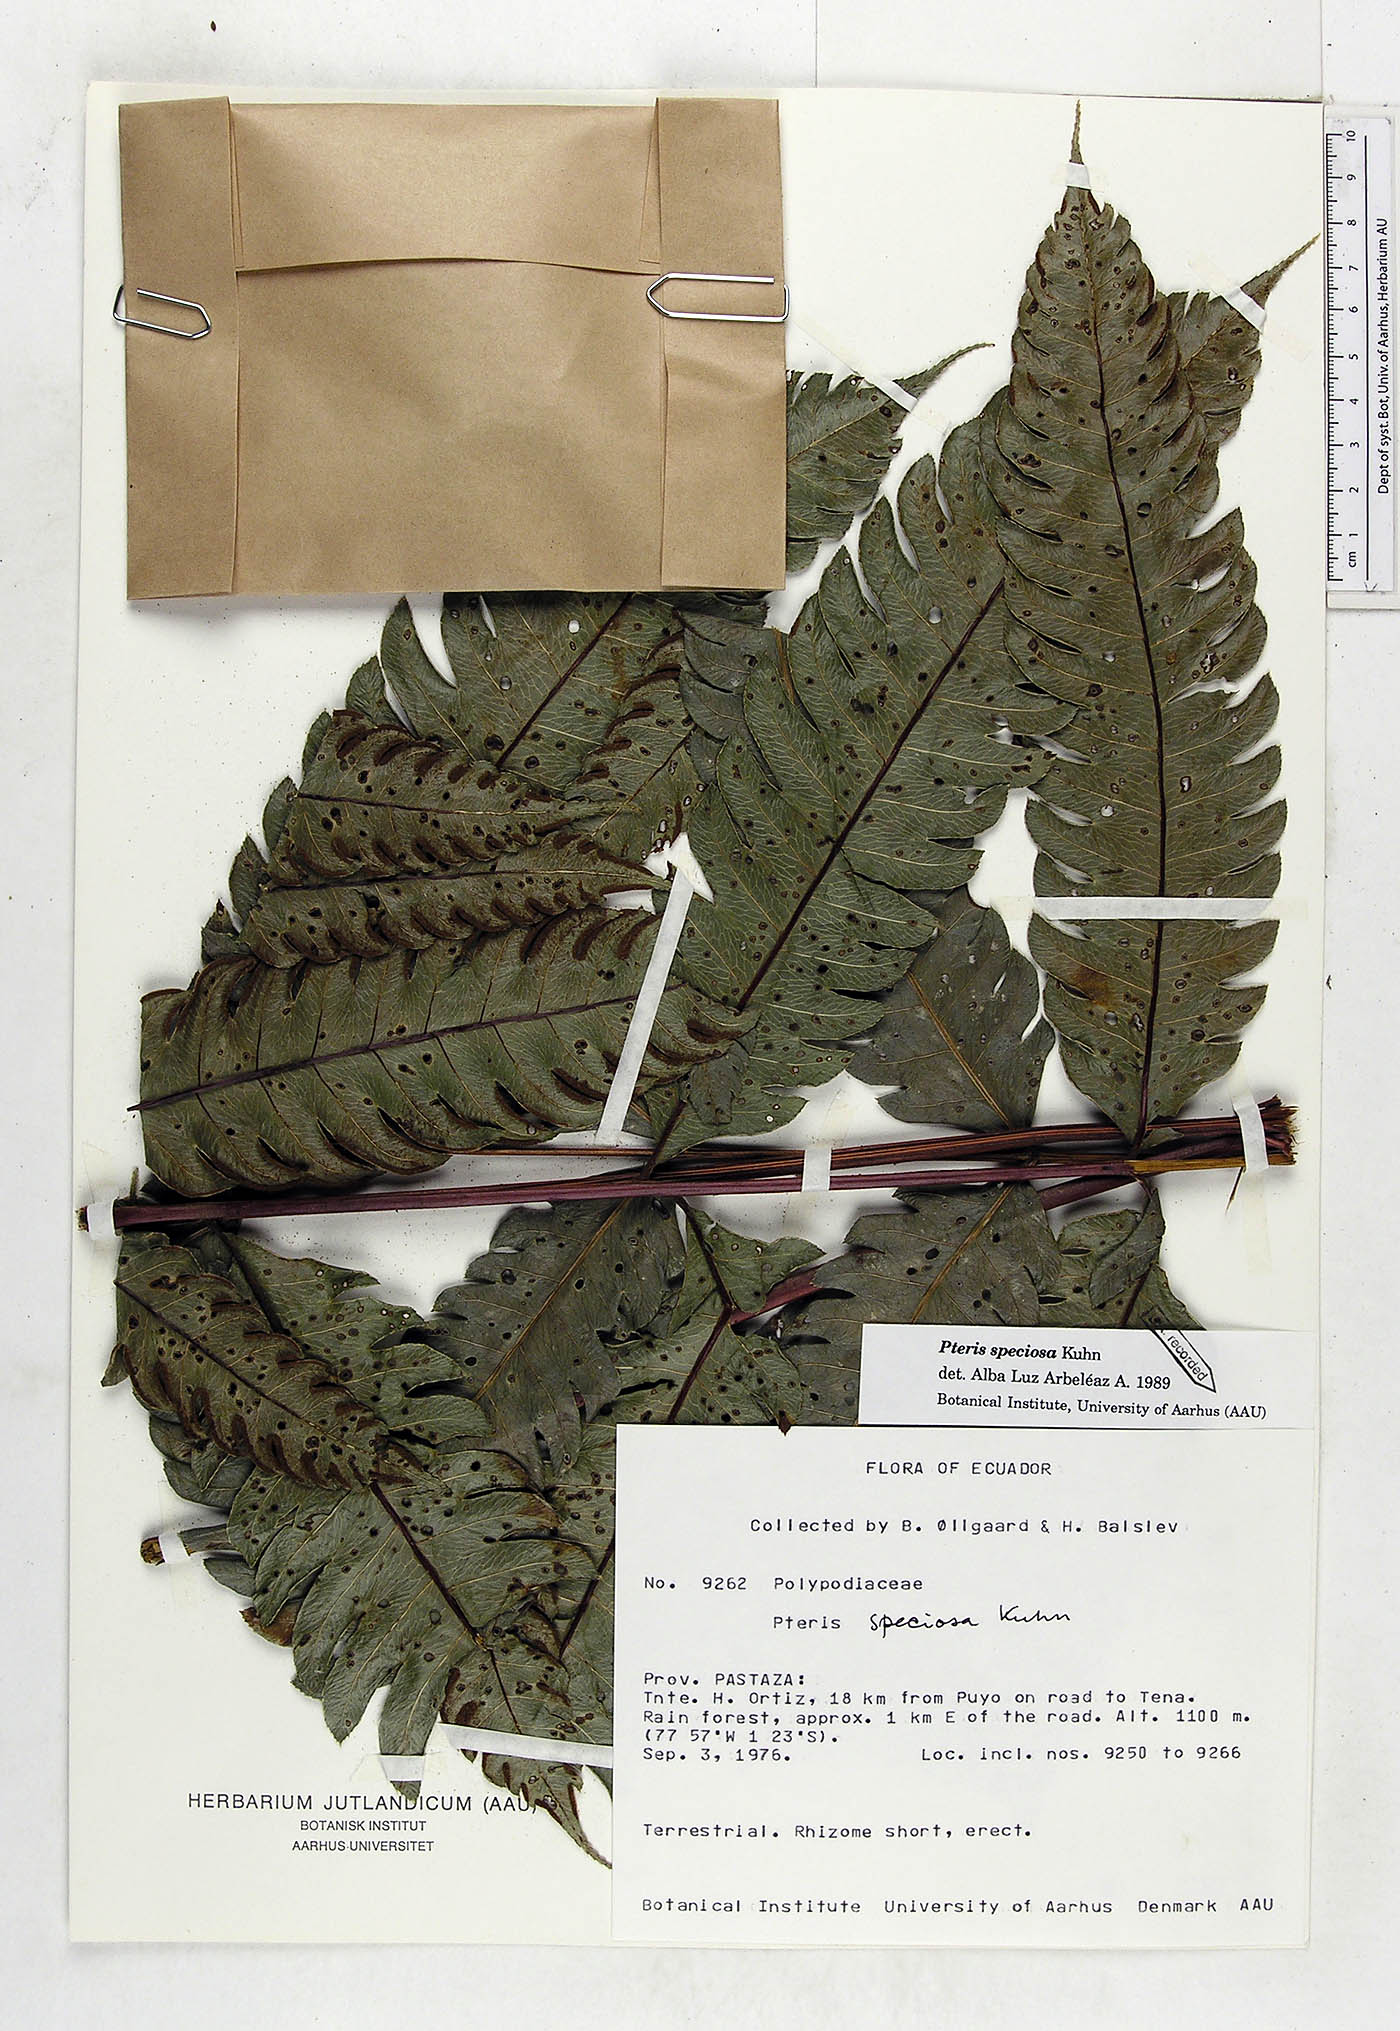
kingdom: Plantae
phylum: Tracheophyta
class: Polypodiopsida
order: Polypodiales
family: Pteridaceae
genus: Pteris
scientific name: Pteris speciosa
